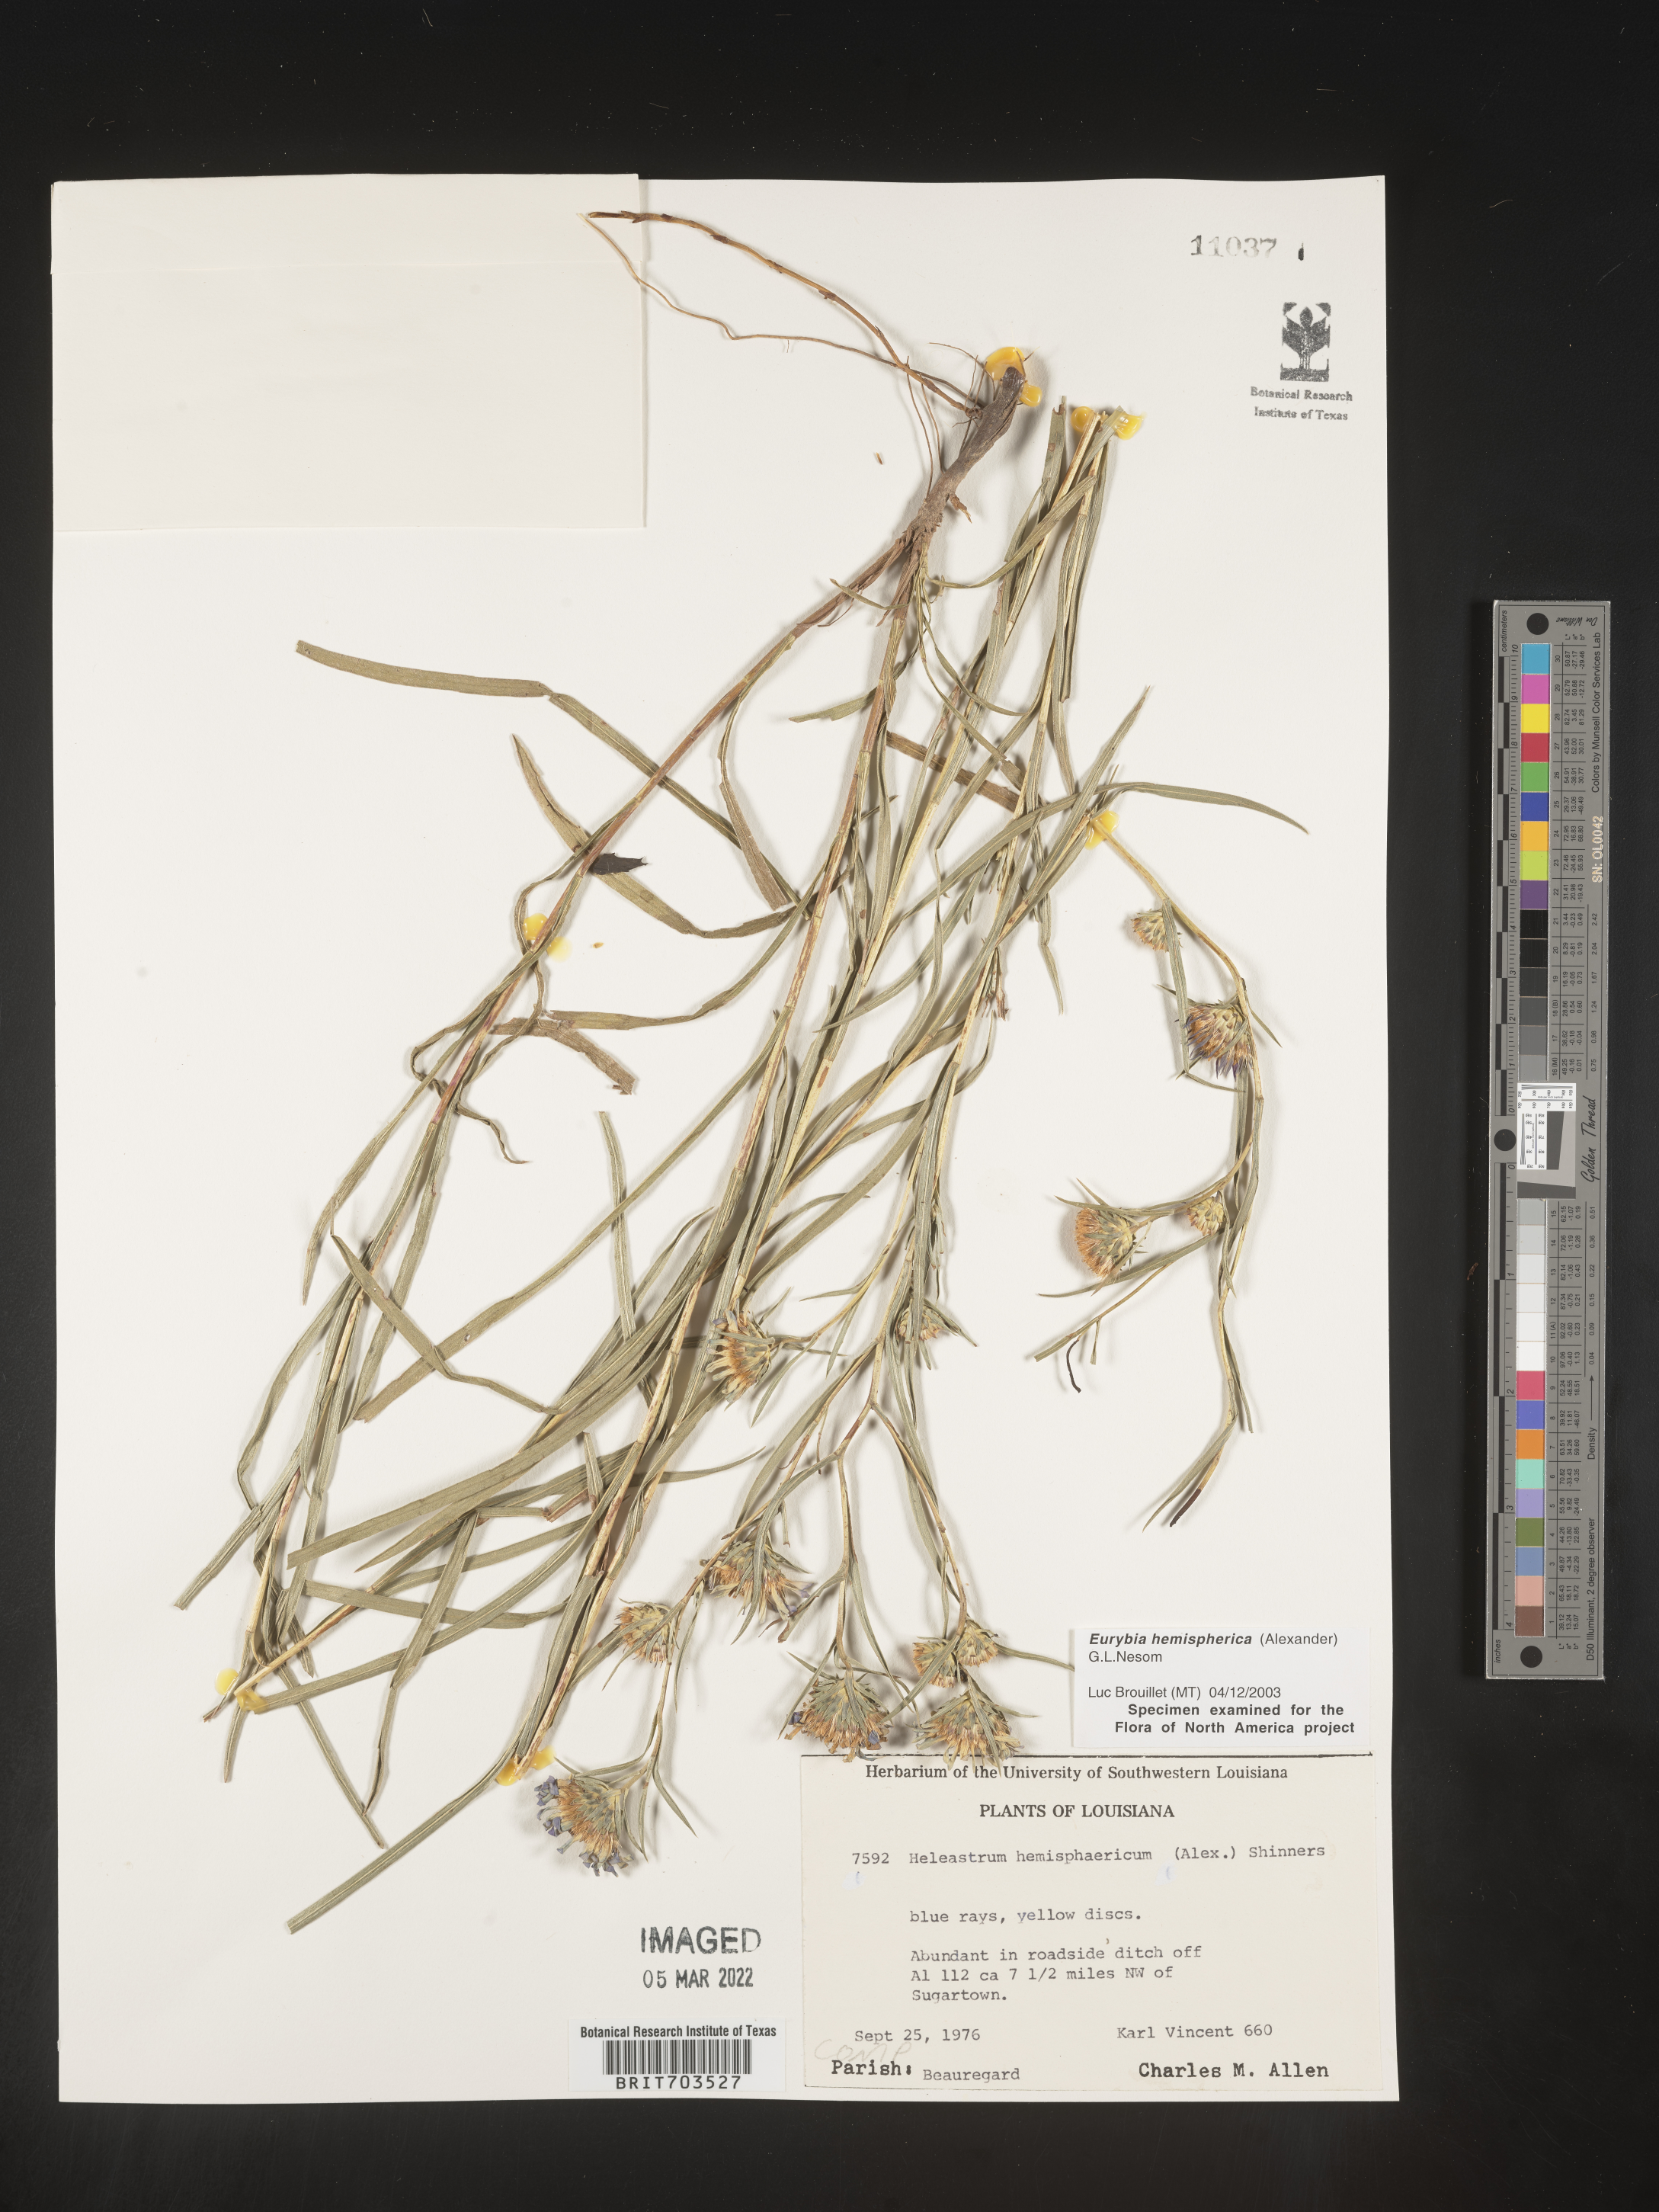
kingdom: Plantae
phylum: Tracheophyta
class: Magnoliopsida
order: Asterales
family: Asteraceae
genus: Eurybia
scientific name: Eurybia hemispherica
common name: Showy aster
